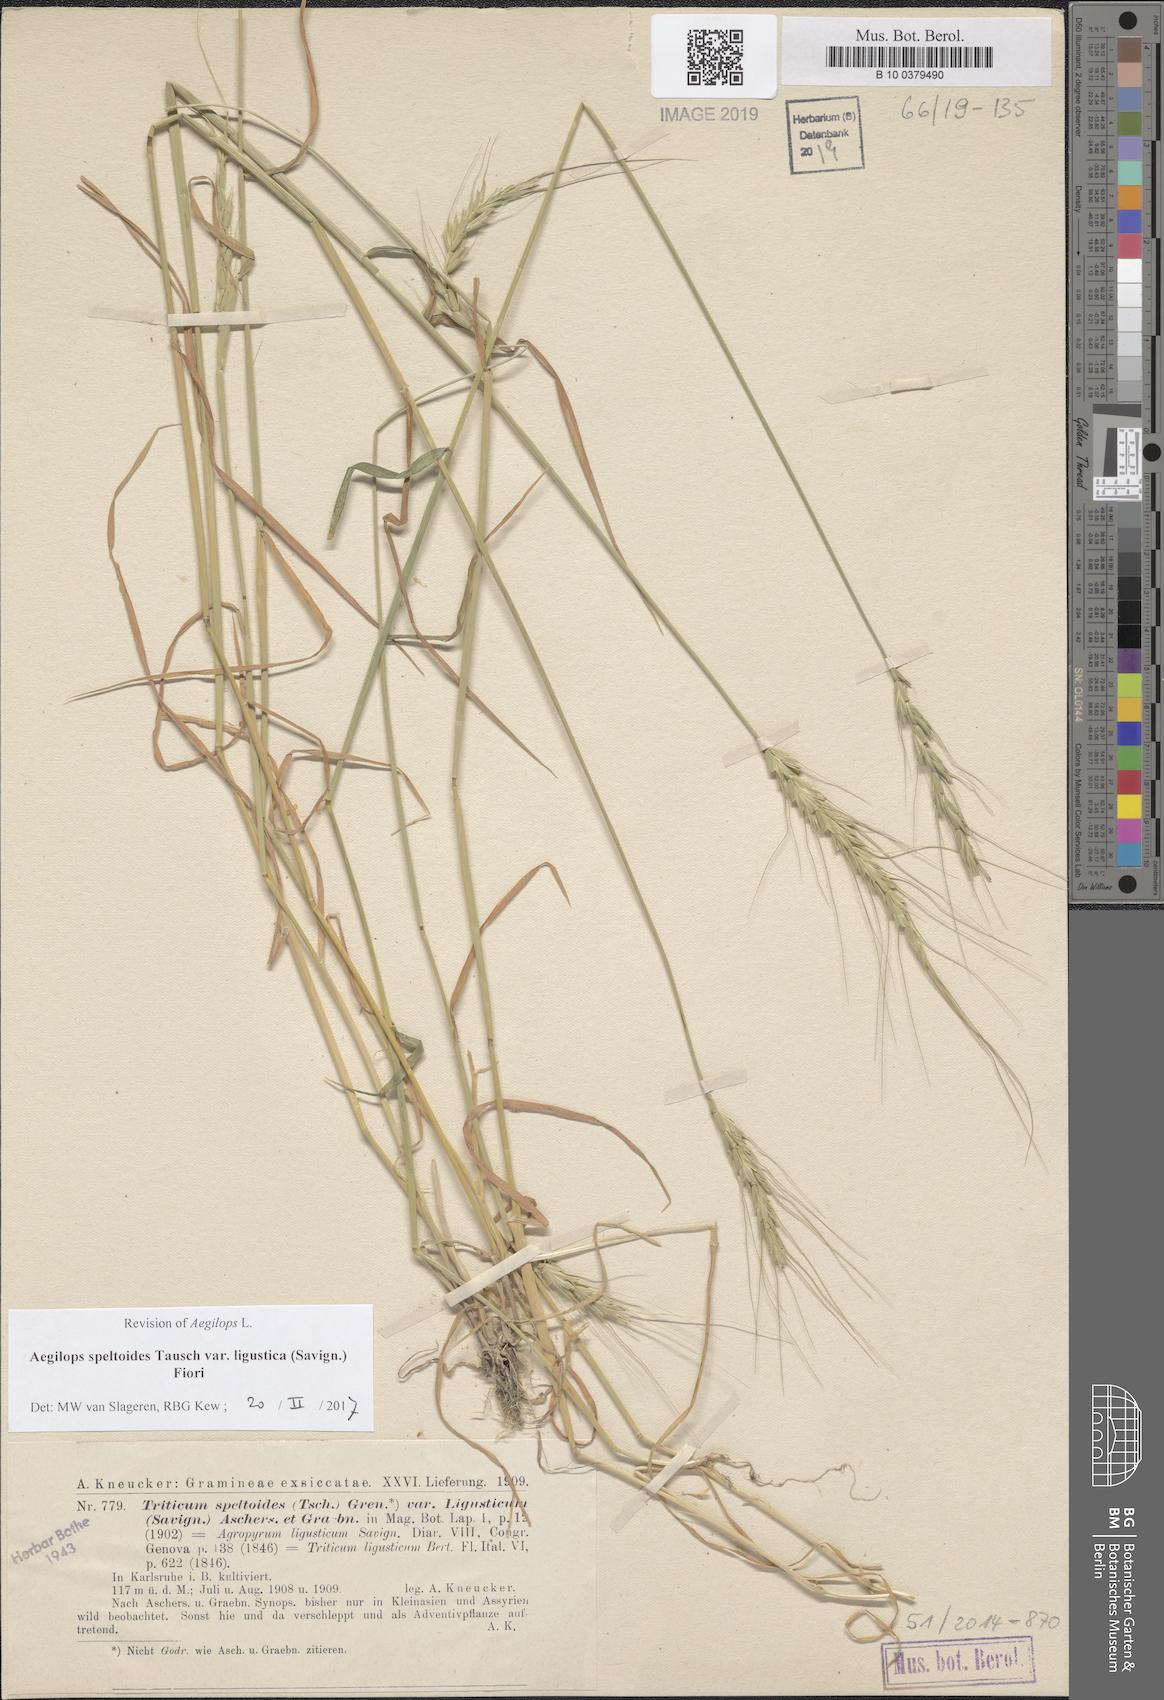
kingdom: Plantae
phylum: Tracheophyta
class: Liliopsida
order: Poales
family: Poaceae
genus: Aegilops
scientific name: Aegilops speltoides
